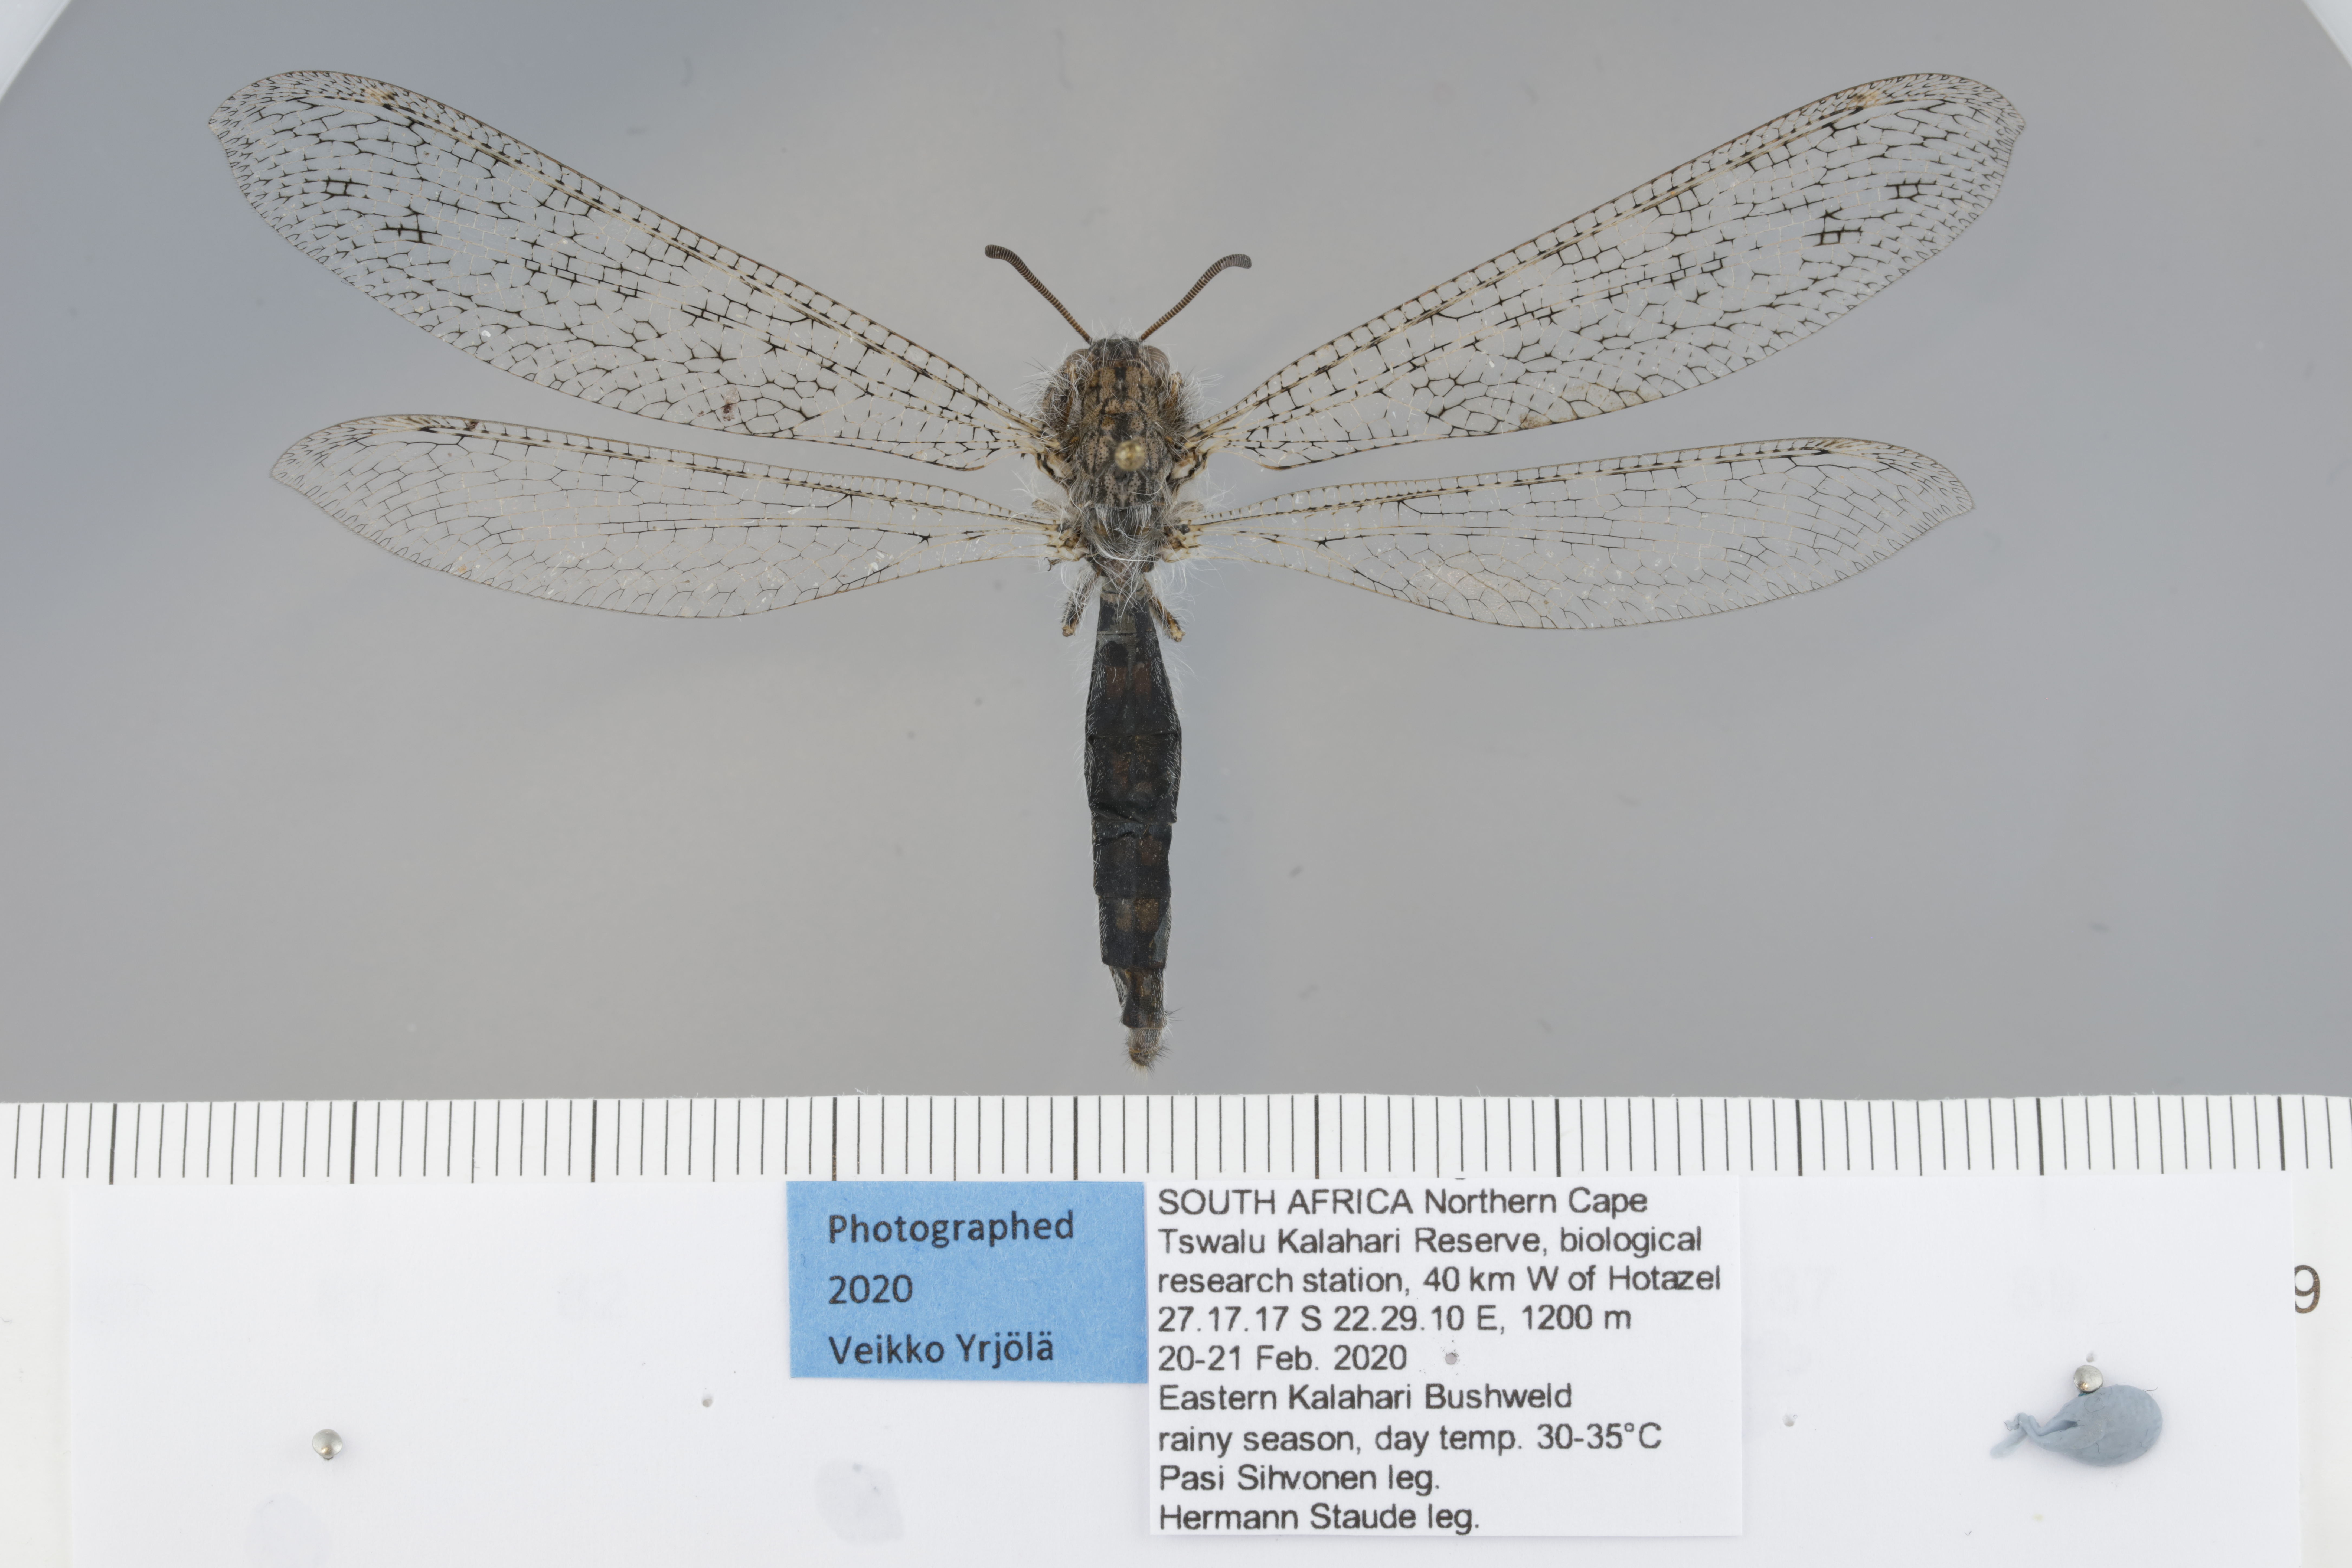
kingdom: Animalia
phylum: Arthropoda
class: Insecta
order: Neuroptera
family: Myrmeleontidae
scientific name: Myrmeleontidae
